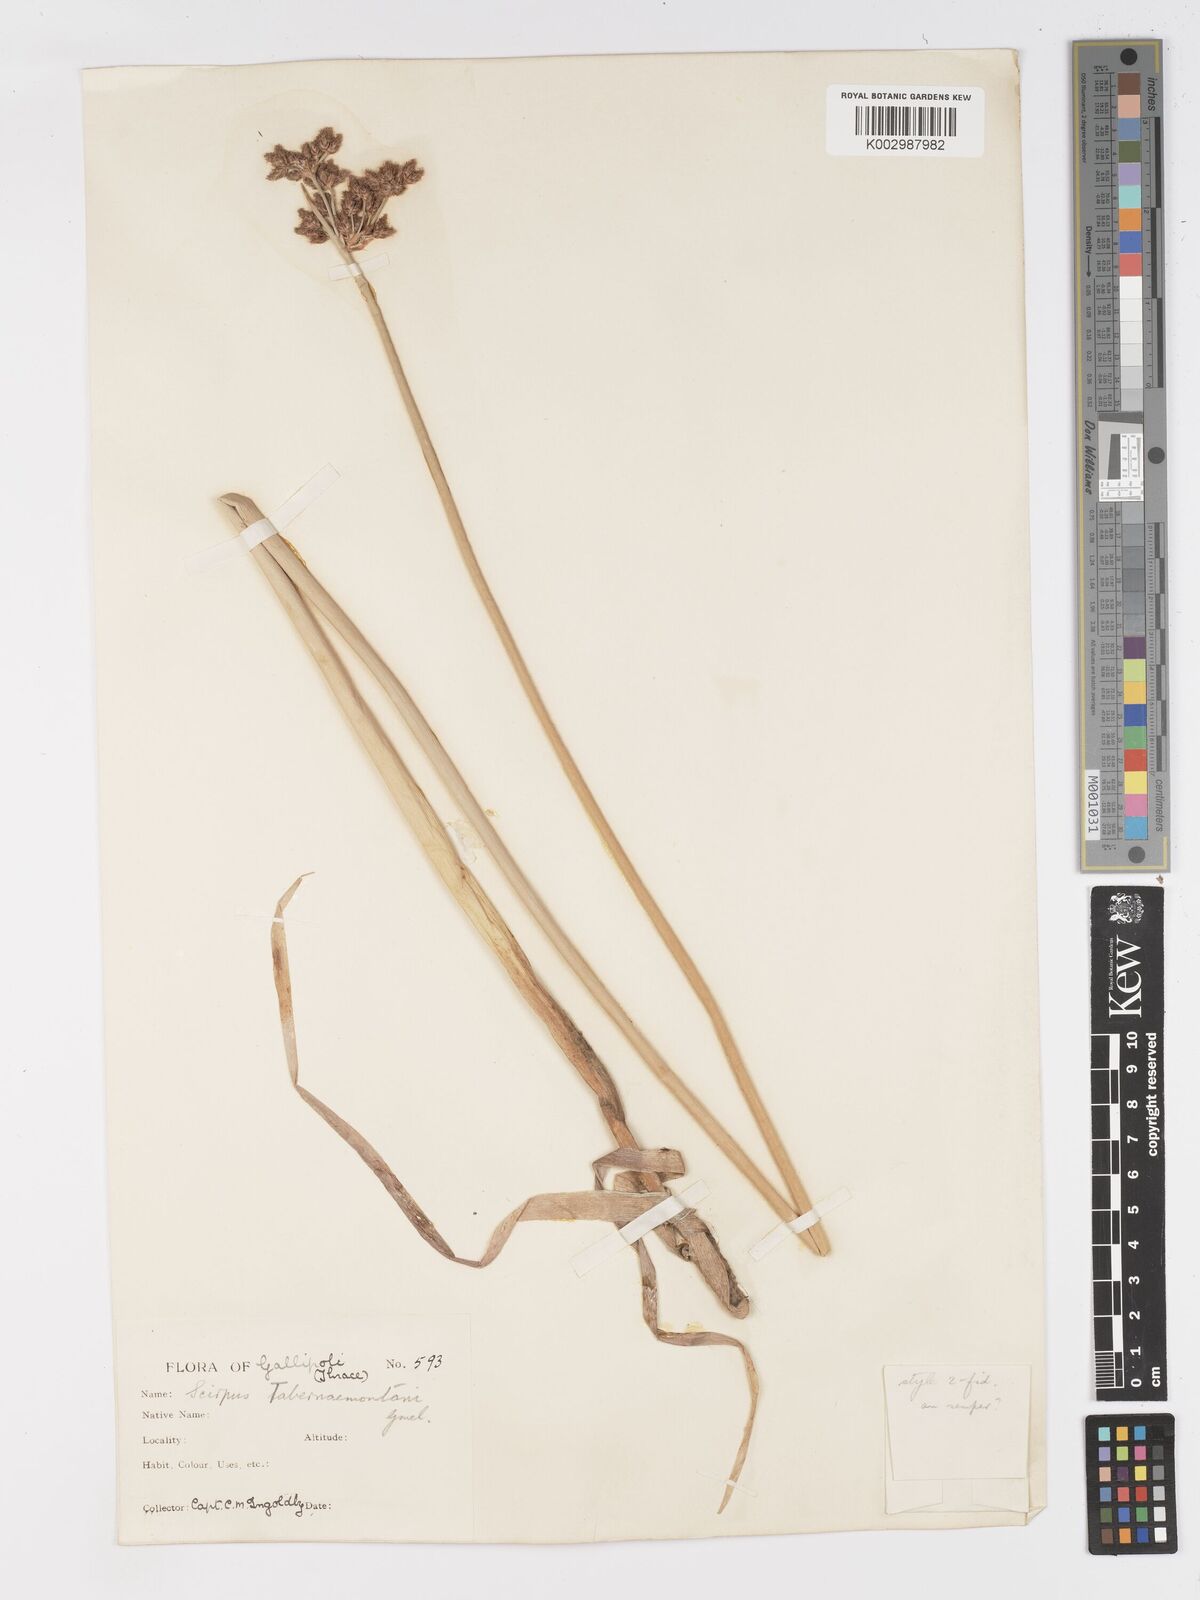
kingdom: Plantae
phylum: Tracheophyta
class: Liliopsida
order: Poales
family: Cyperaceae
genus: Schoenoplectus
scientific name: Schoenoplectus tabernaemontani
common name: Grey club-rush
